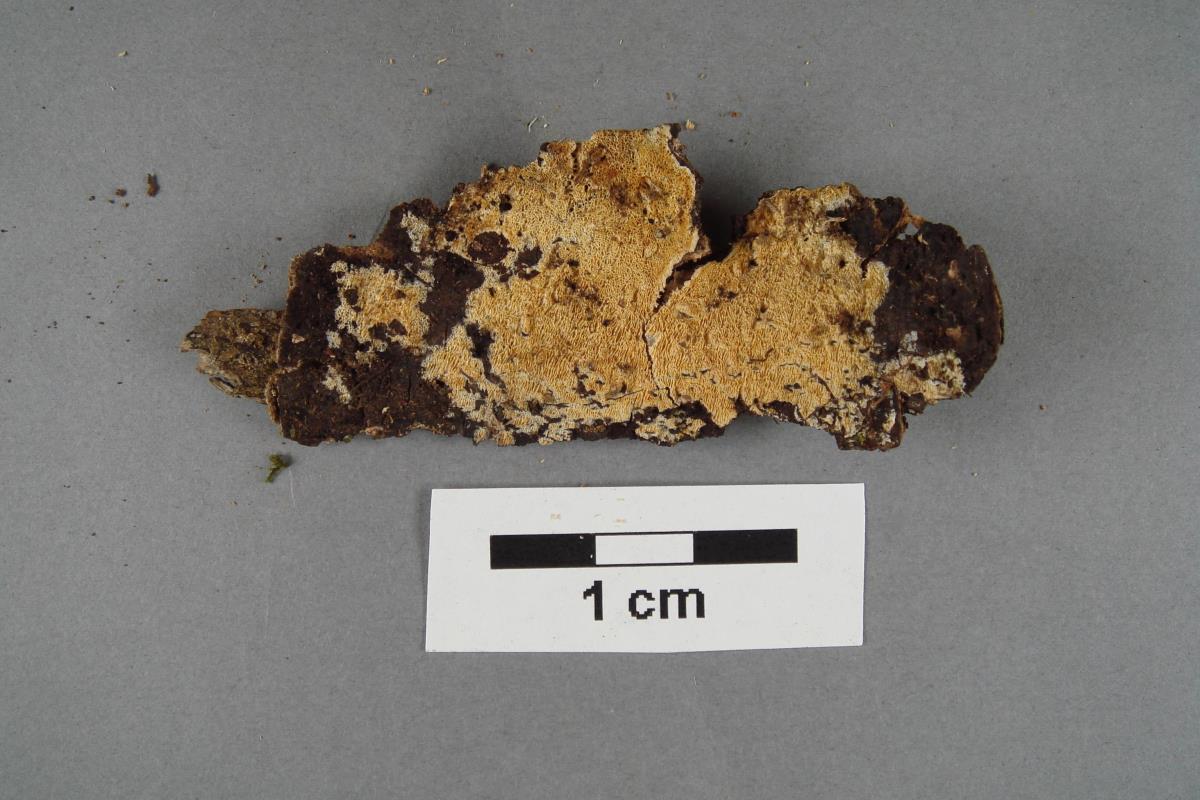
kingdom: Fungi
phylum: Basidiomycota
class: Agaricomycetes
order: Hymenochaetales
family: Schizoporaceae
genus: Xylodon
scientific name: Xylodon raduloides
